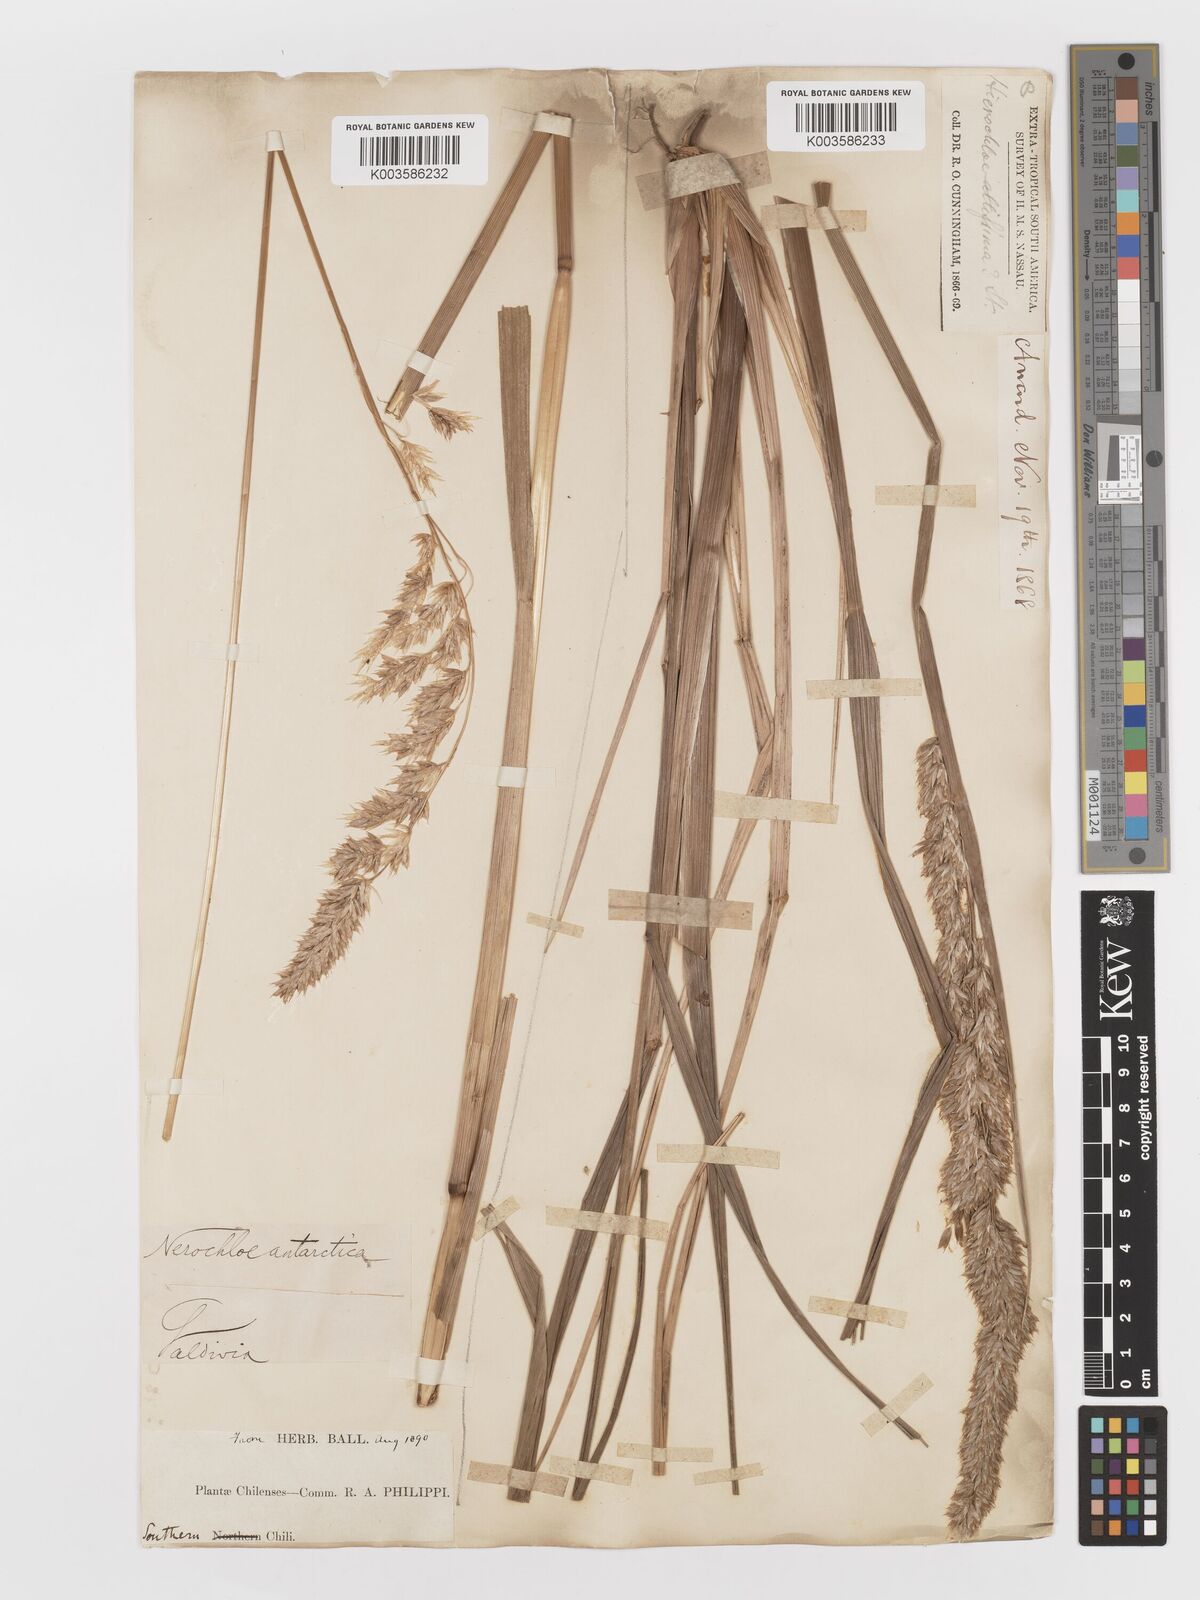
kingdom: Plantae
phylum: Tracheophyta
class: Liliopsida
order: Poales
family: Poaceae
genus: Anthoxanthum
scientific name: Anthoxanthum redolens
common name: Sweet holy grass
